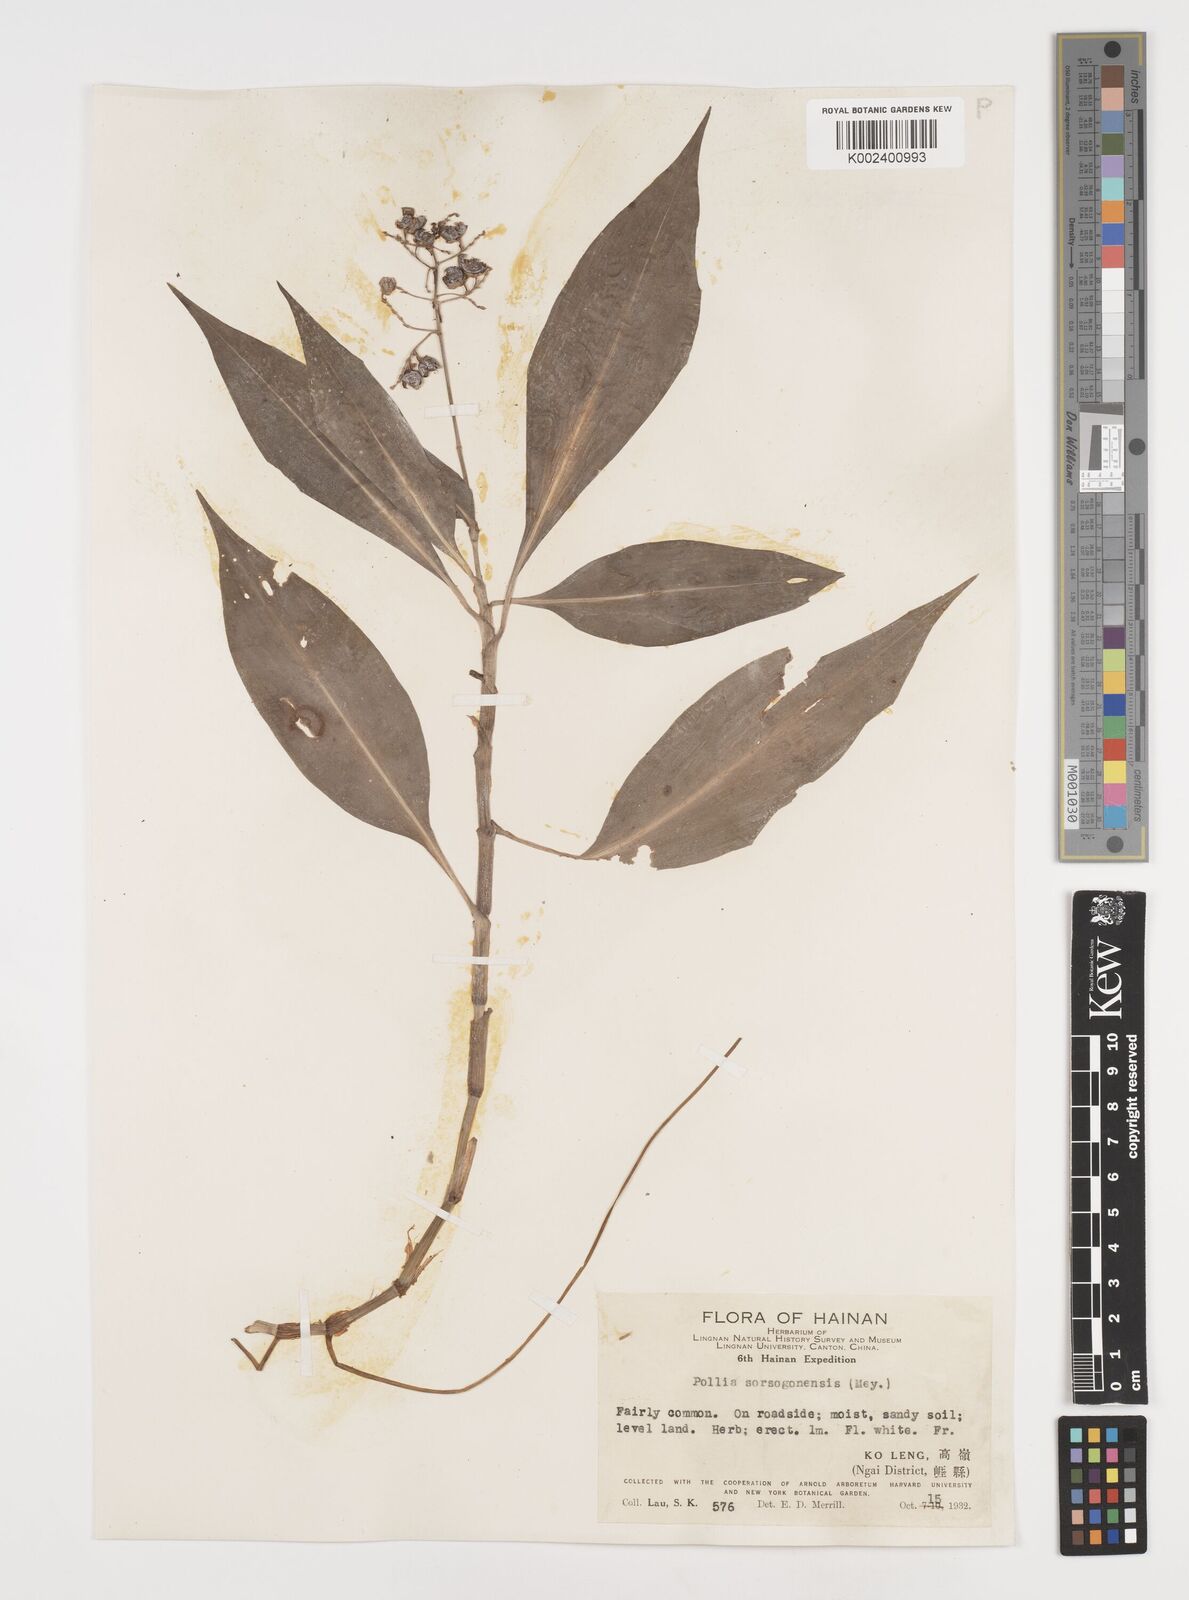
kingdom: Plantae
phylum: Tracheophyta
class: Liliopsida
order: Commelinales
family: Commelinaceae
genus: Pollia
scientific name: Pollia secundiflora
